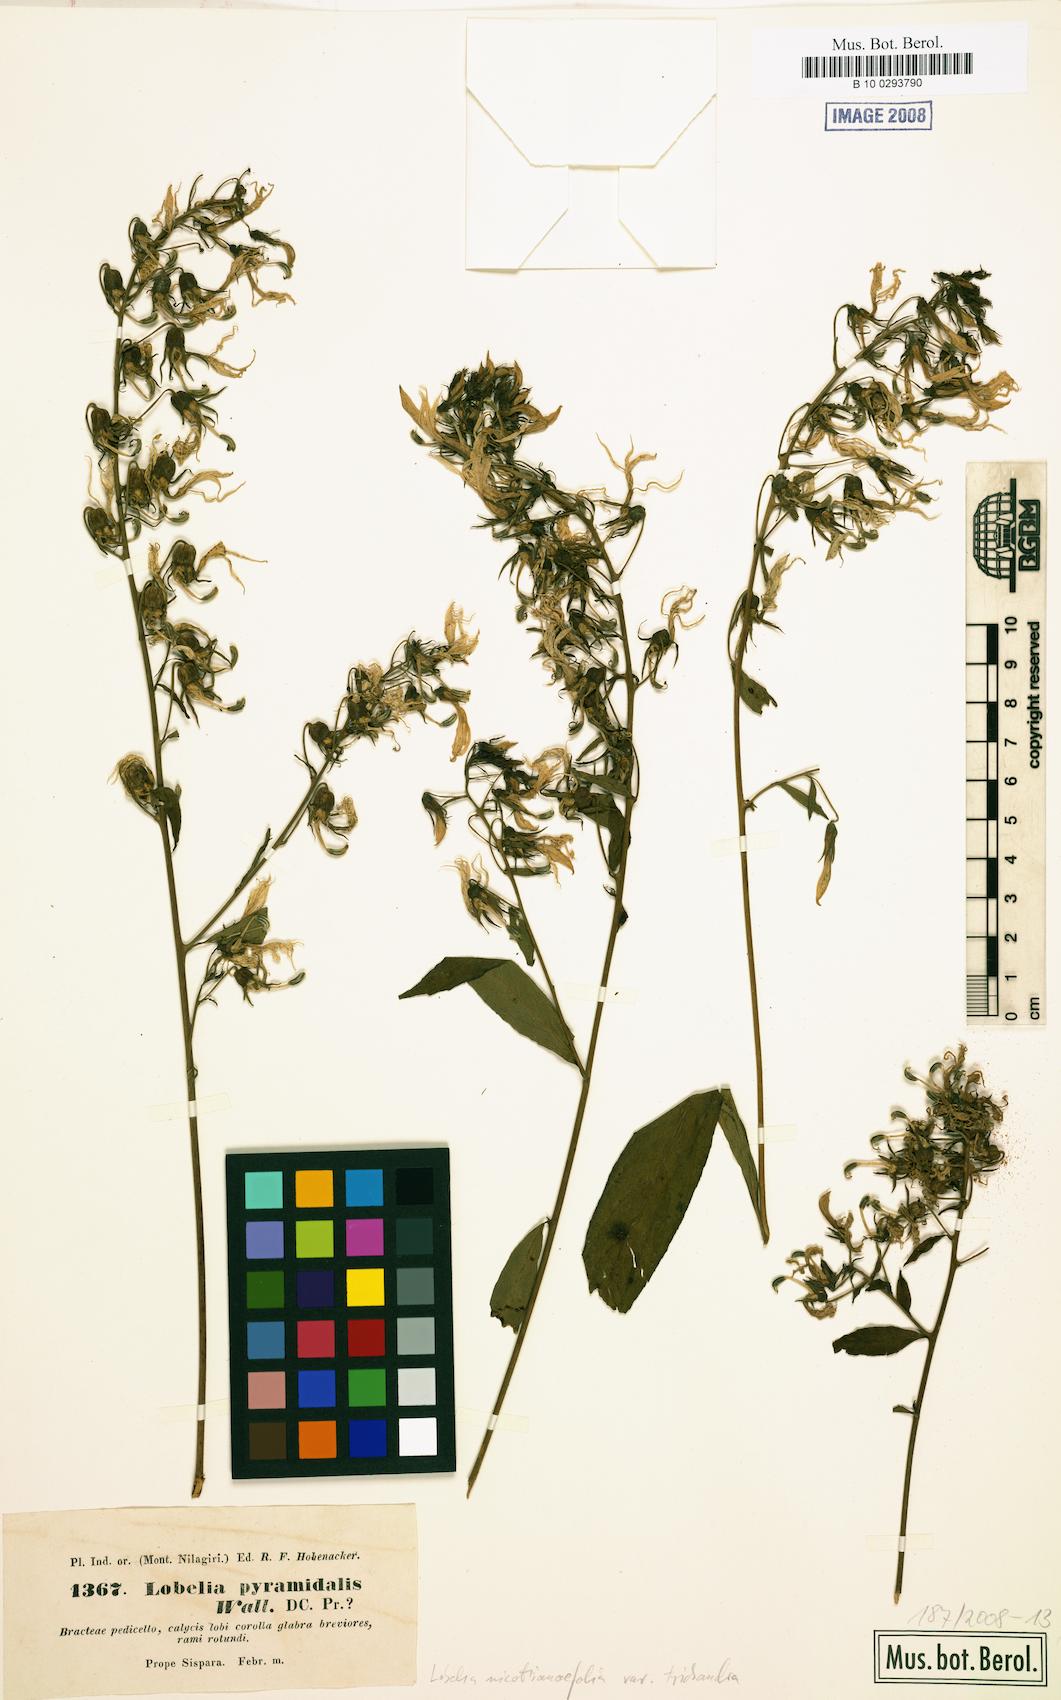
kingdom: Plantae
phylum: Tracheophyta
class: Magnoliopsida
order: Asterales
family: Campanulaceae
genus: Lobelia
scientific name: Lobelia nicotianifolia
